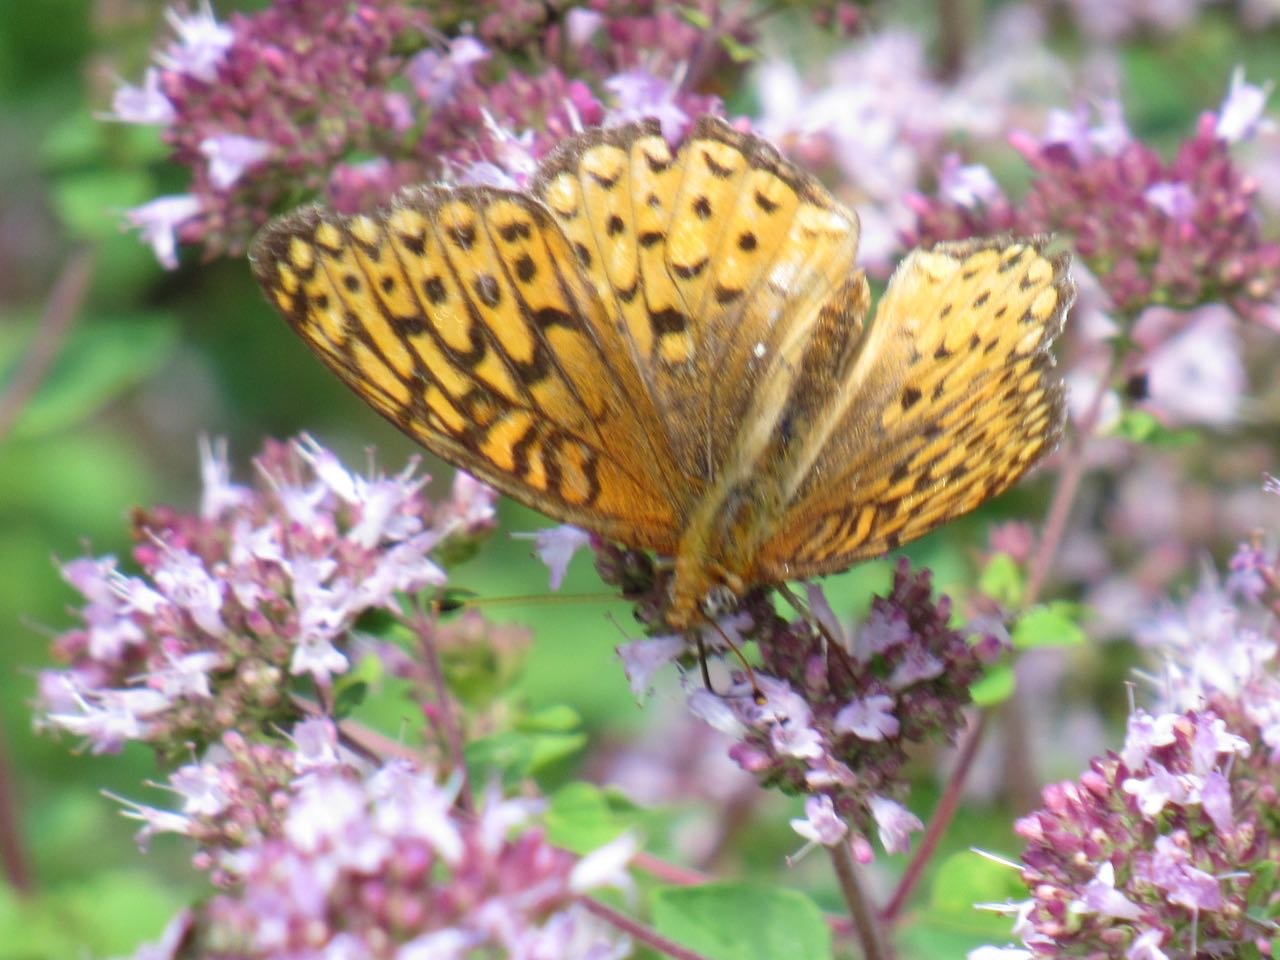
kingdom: Animalia
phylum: Arthropoda
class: Insecta
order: Lepidoptera
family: Nymphalidae
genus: Speyeria
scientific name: Speyeria atlantis
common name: Atlantis Fritillary
